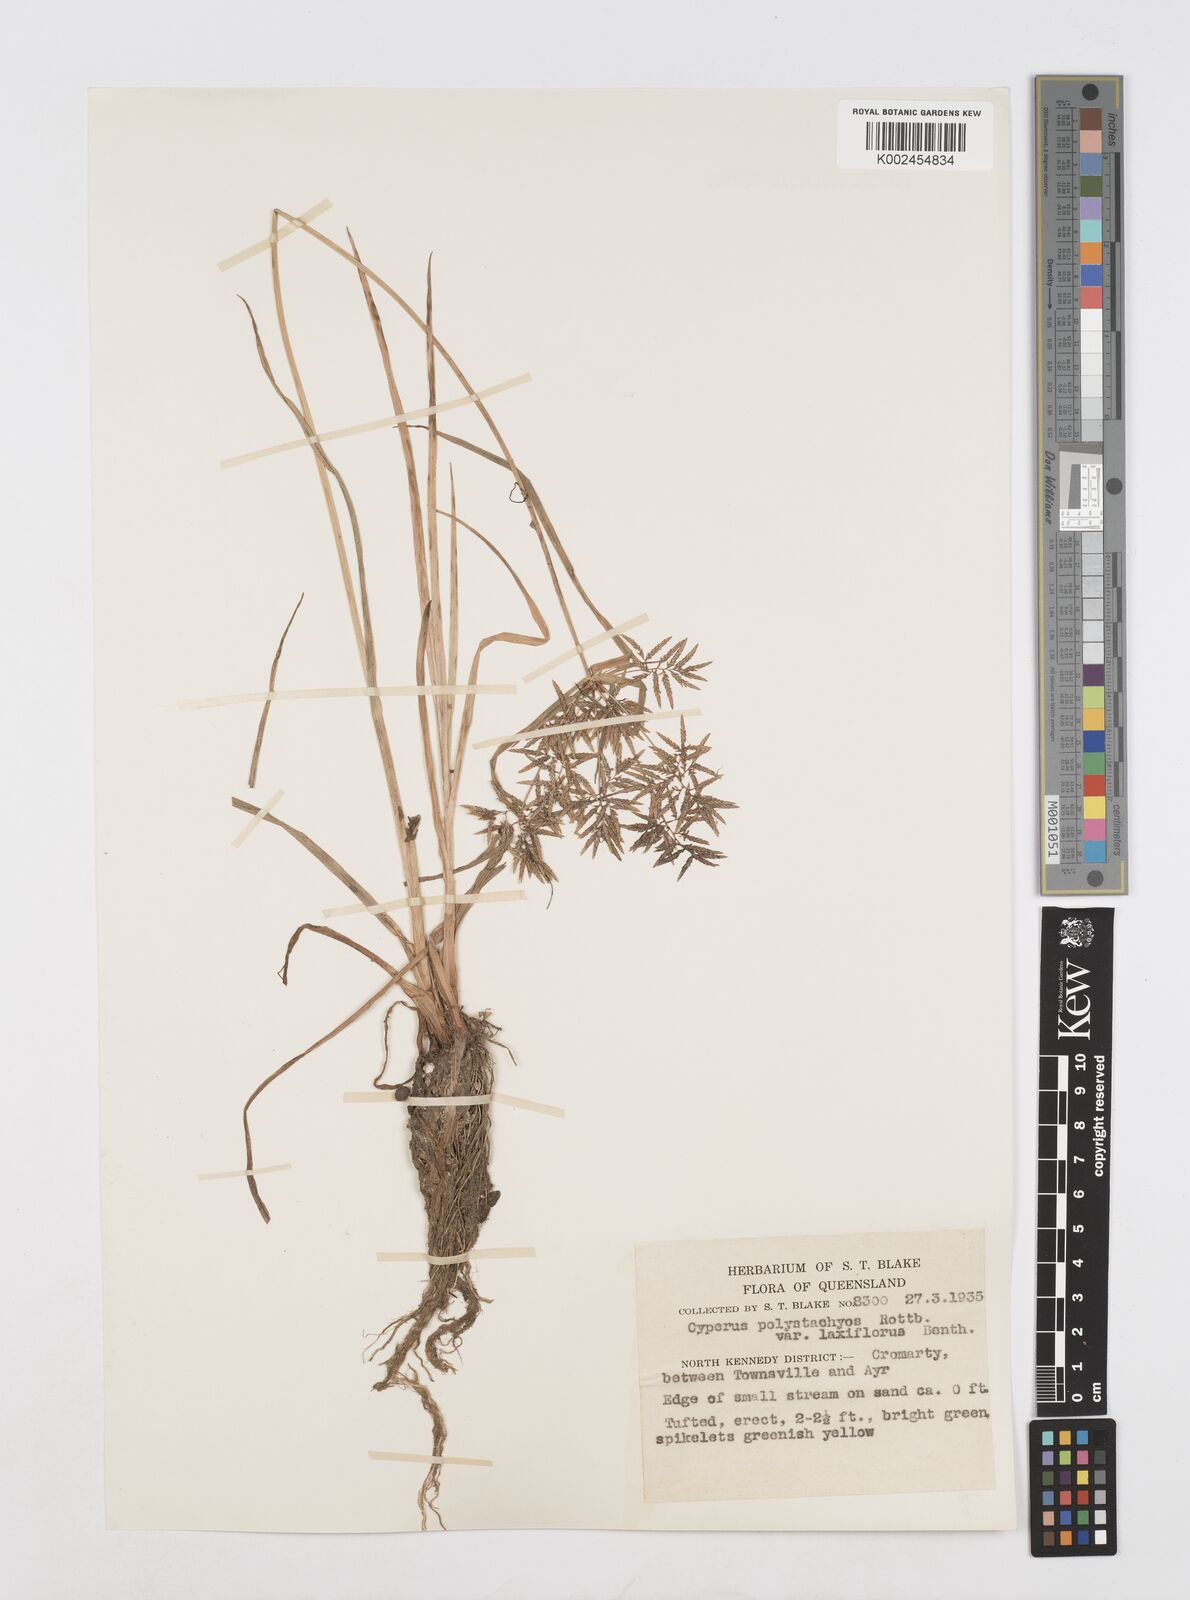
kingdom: Plantae
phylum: Tracheophyta
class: Liliopsida
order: Poales
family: Cyperaceae
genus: Cyperus
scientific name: Cyperus polystachyos
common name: Bunchy flat sedge
